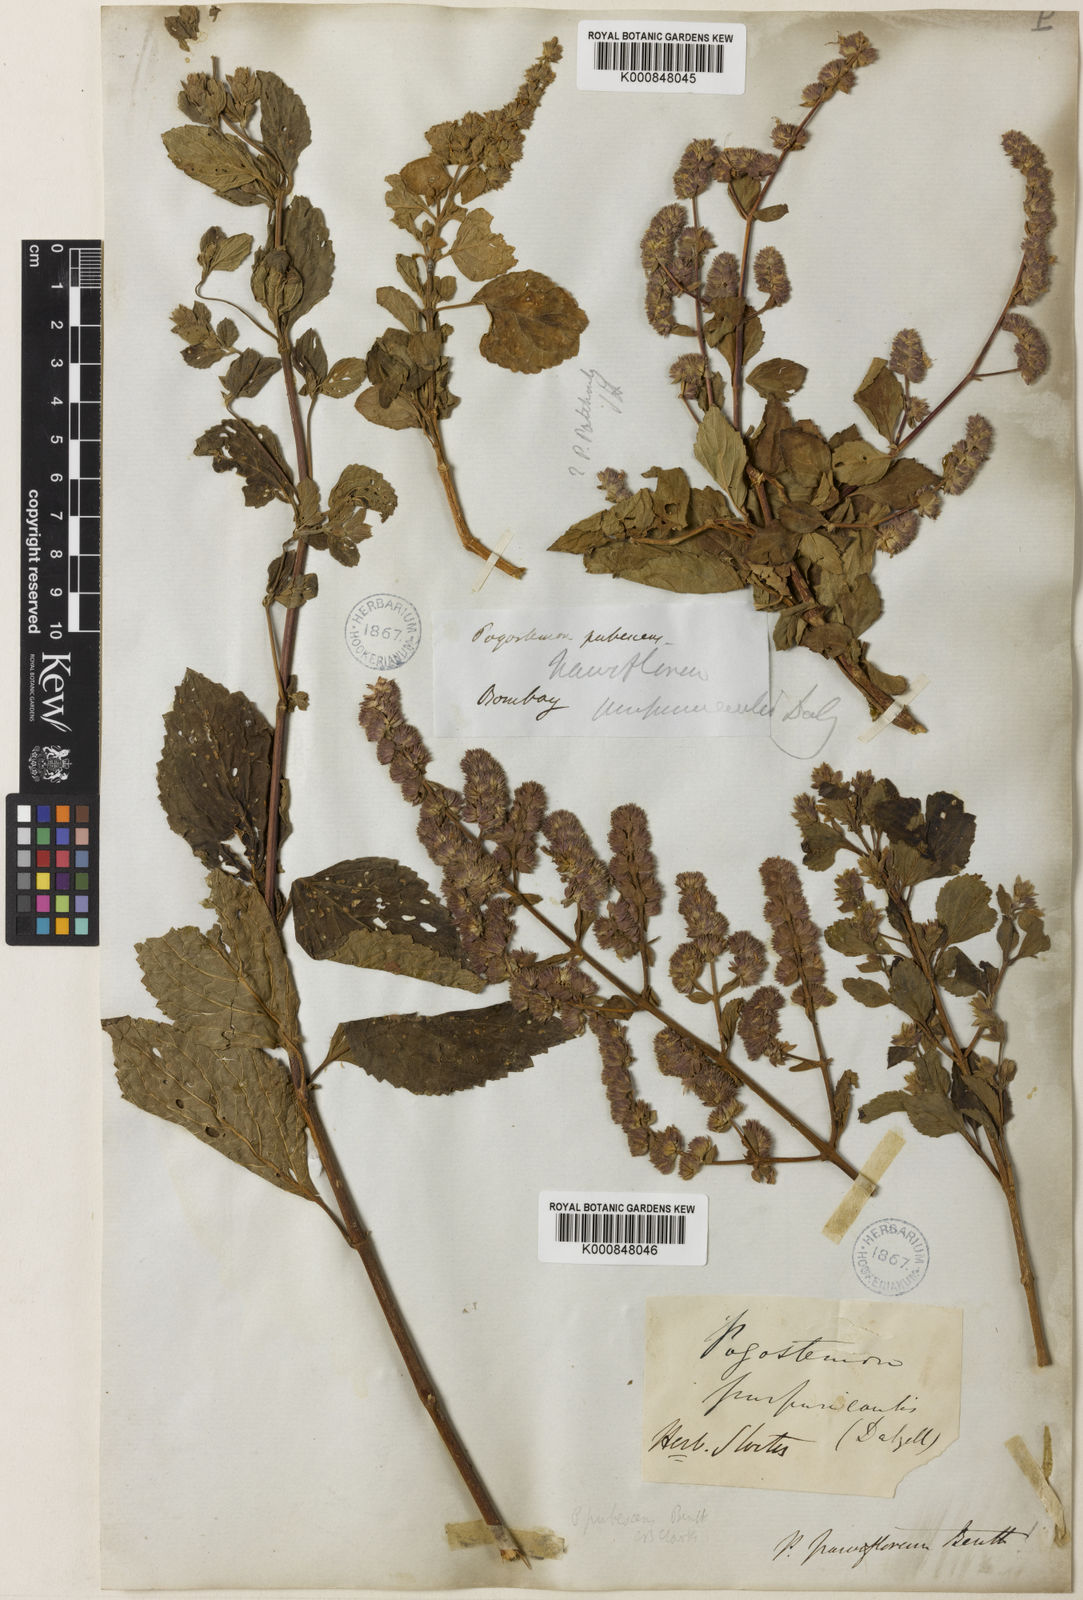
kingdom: Plantae
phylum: Tracheophyta
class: Magnoliopsida
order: Lamiales
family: Lamiaceae
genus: Pogostemon
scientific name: Pogostemon parviflorus
